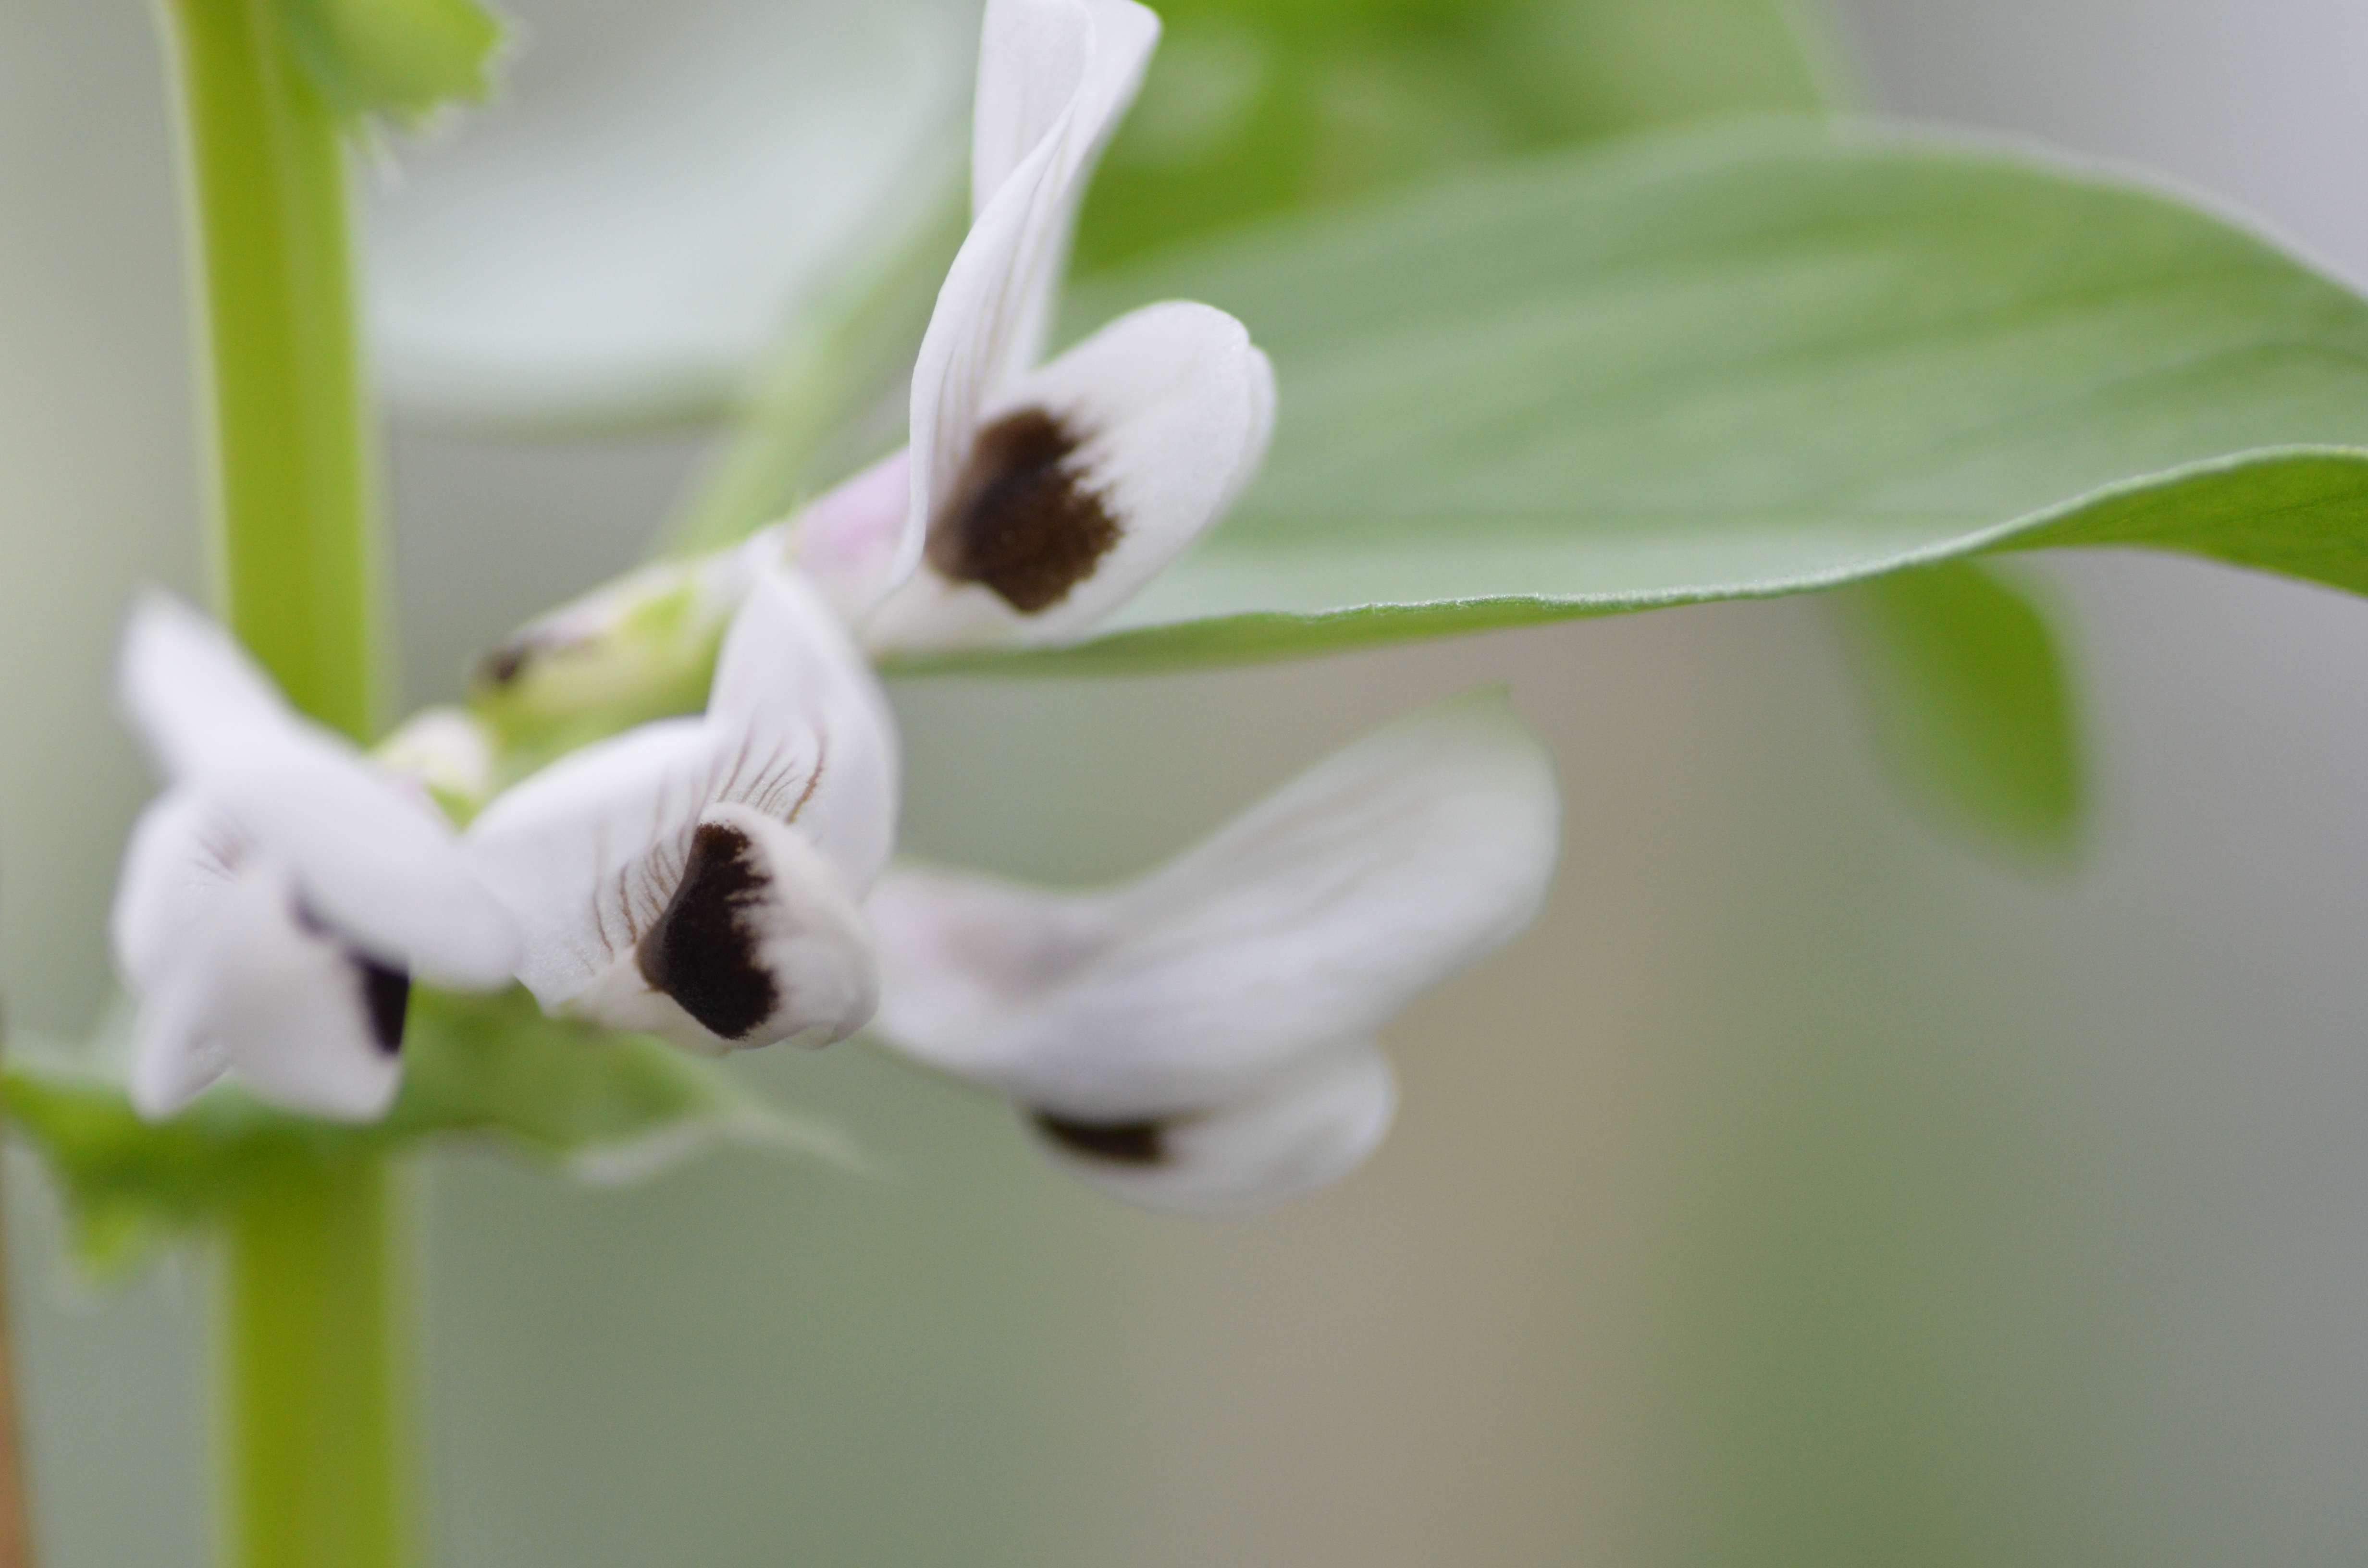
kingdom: Plantae
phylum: Tracheophyta
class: Magnoliopsida
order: Fabales
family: Fabaceae
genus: Vicia
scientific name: Vicia faba
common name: Broad bean
